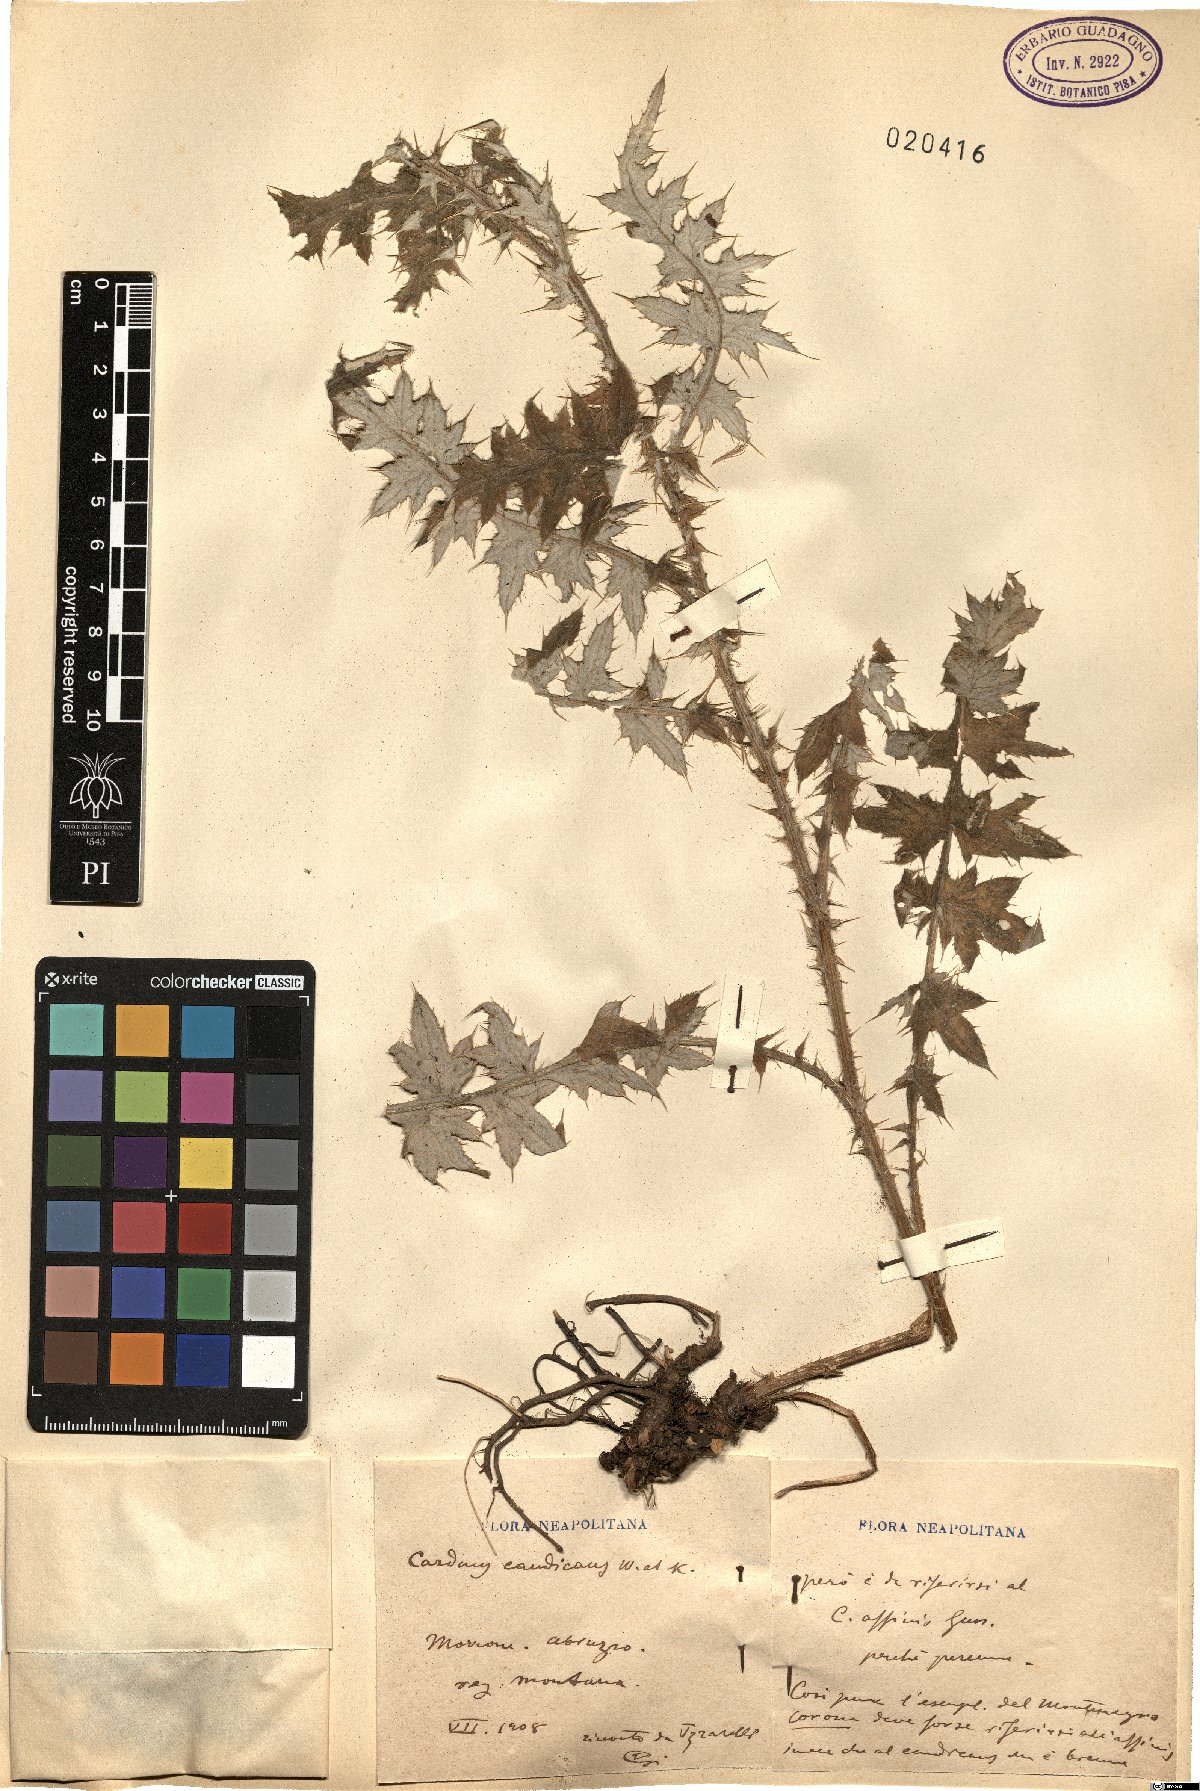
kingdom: Plantae
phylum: Tracheophyta
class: Magnoliopsida
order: Asterales
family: Asteraceae
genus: Carduus
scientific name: Carduus affinis
